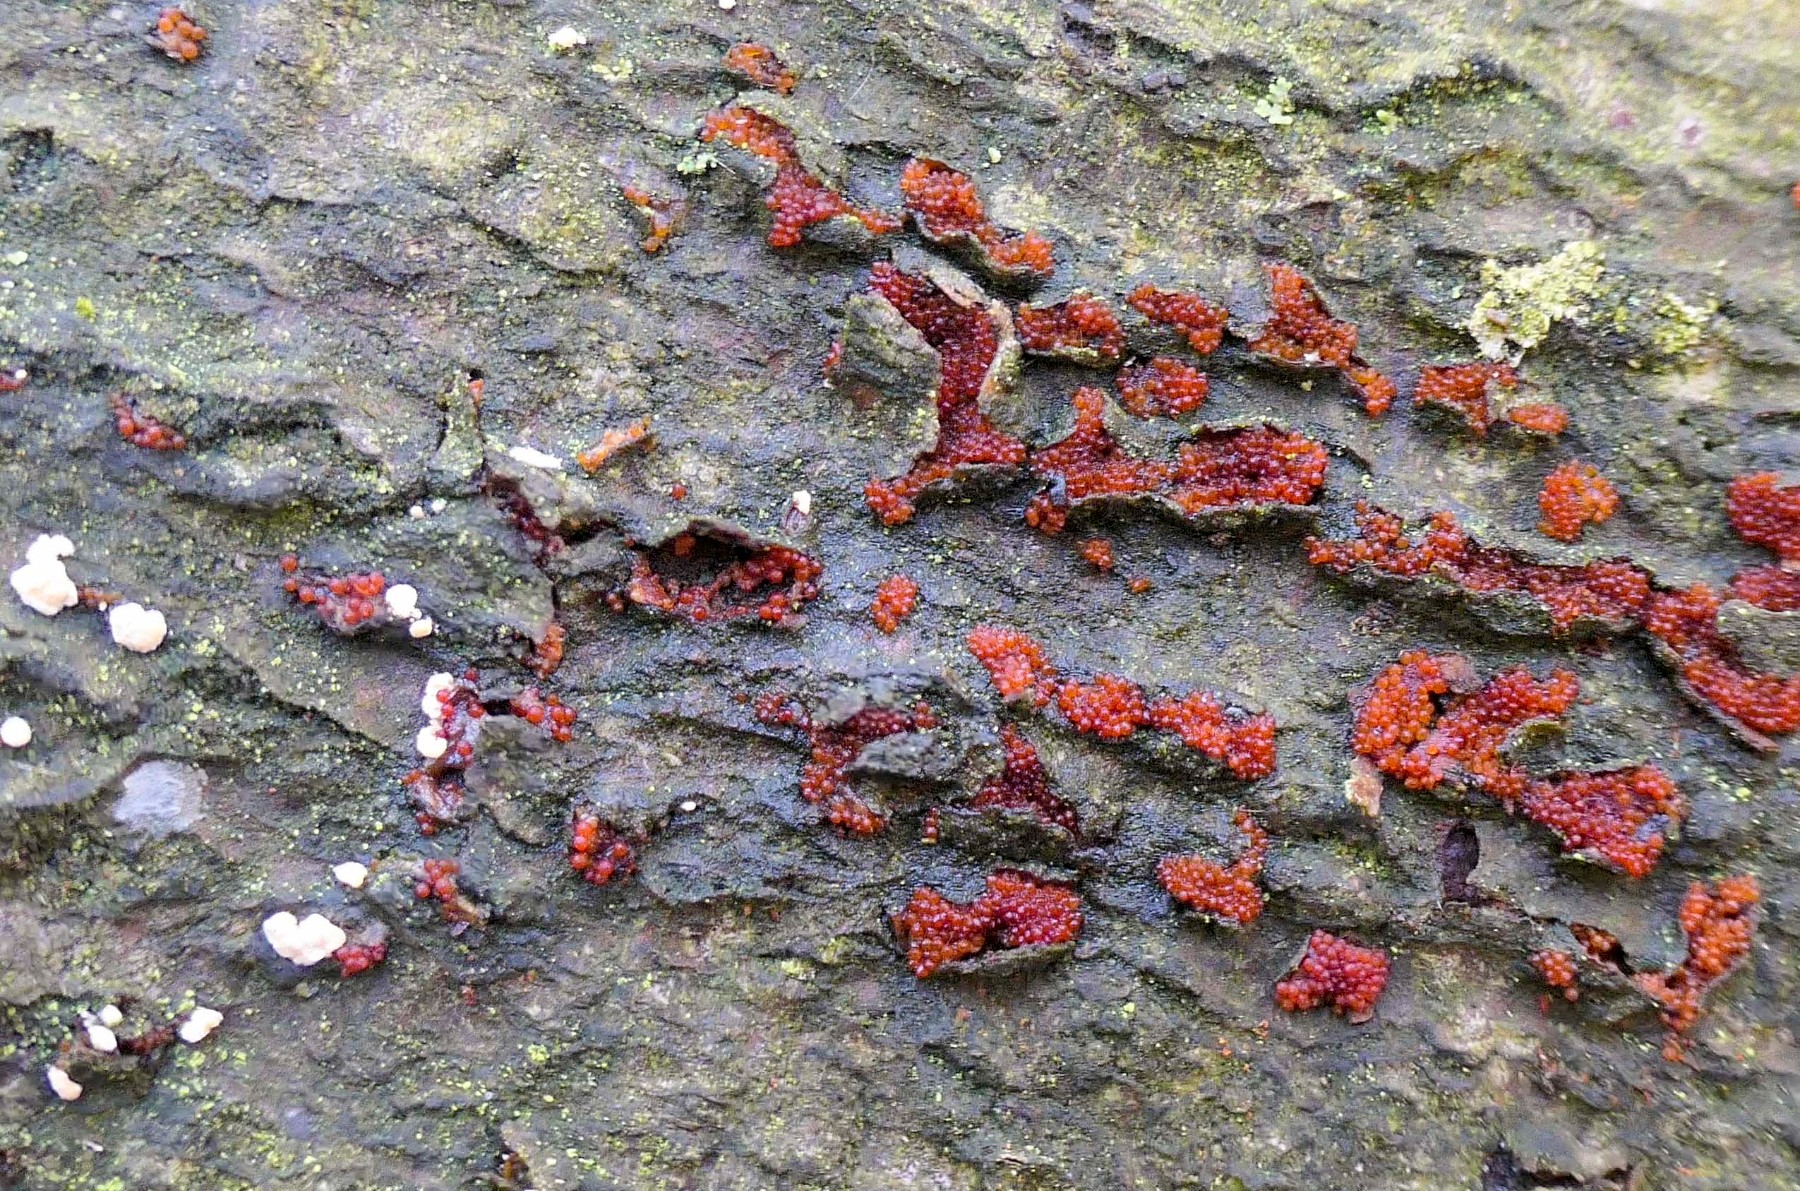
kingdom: Fungi
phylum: Ascomycota
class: Sordariomycetes
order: Hypocreales
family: Nectriaceae
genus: Neonectria
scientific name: Neonectria coccinea
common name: bøgebark-cinnobersvamp
